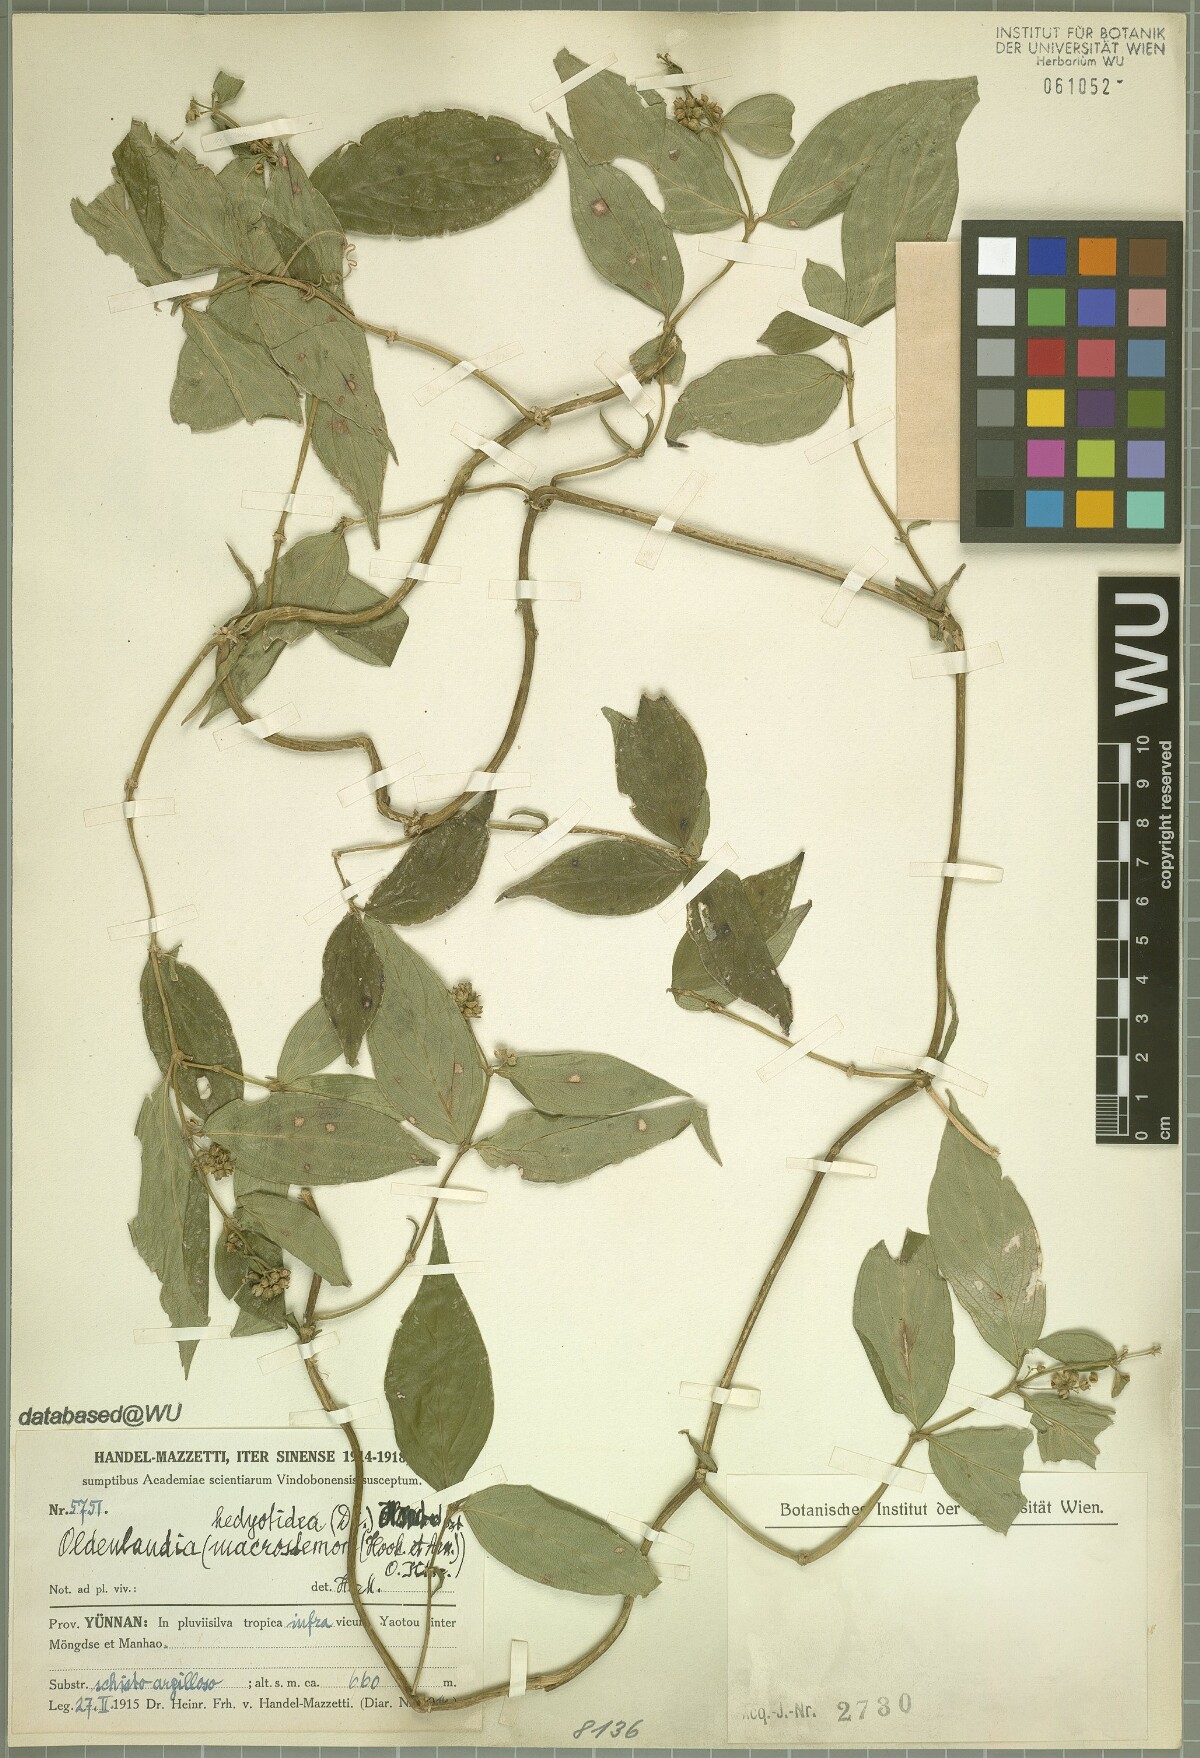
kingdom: Plantae
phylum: Tracheophyta
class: Magnoliopsida
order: Gentianales
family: Rubiaceae
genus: Dimetia
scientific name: Dimetia hedyotidea
